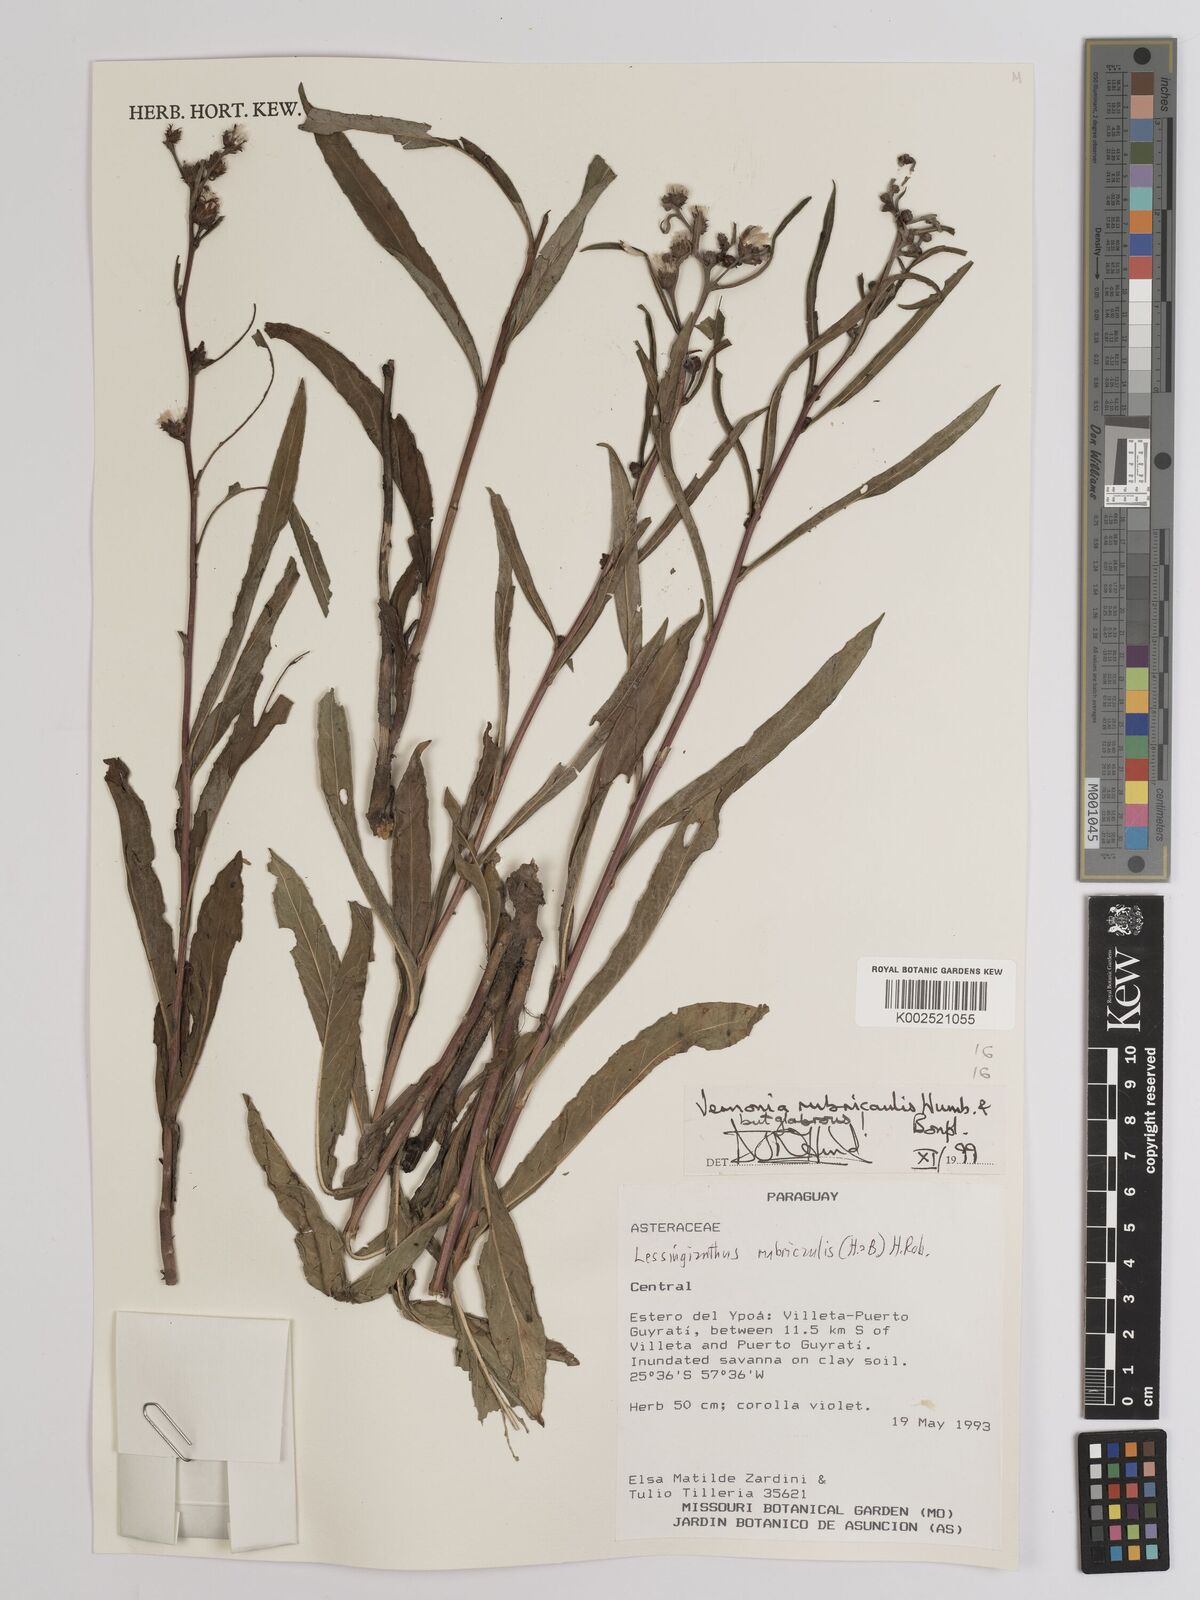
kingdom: Plantae
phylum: Tracheophyta
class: Magnoliopsida
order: Asterales
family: Asteraceae
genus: Lessingianthus
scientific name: Lessingianthus rubricaulis
